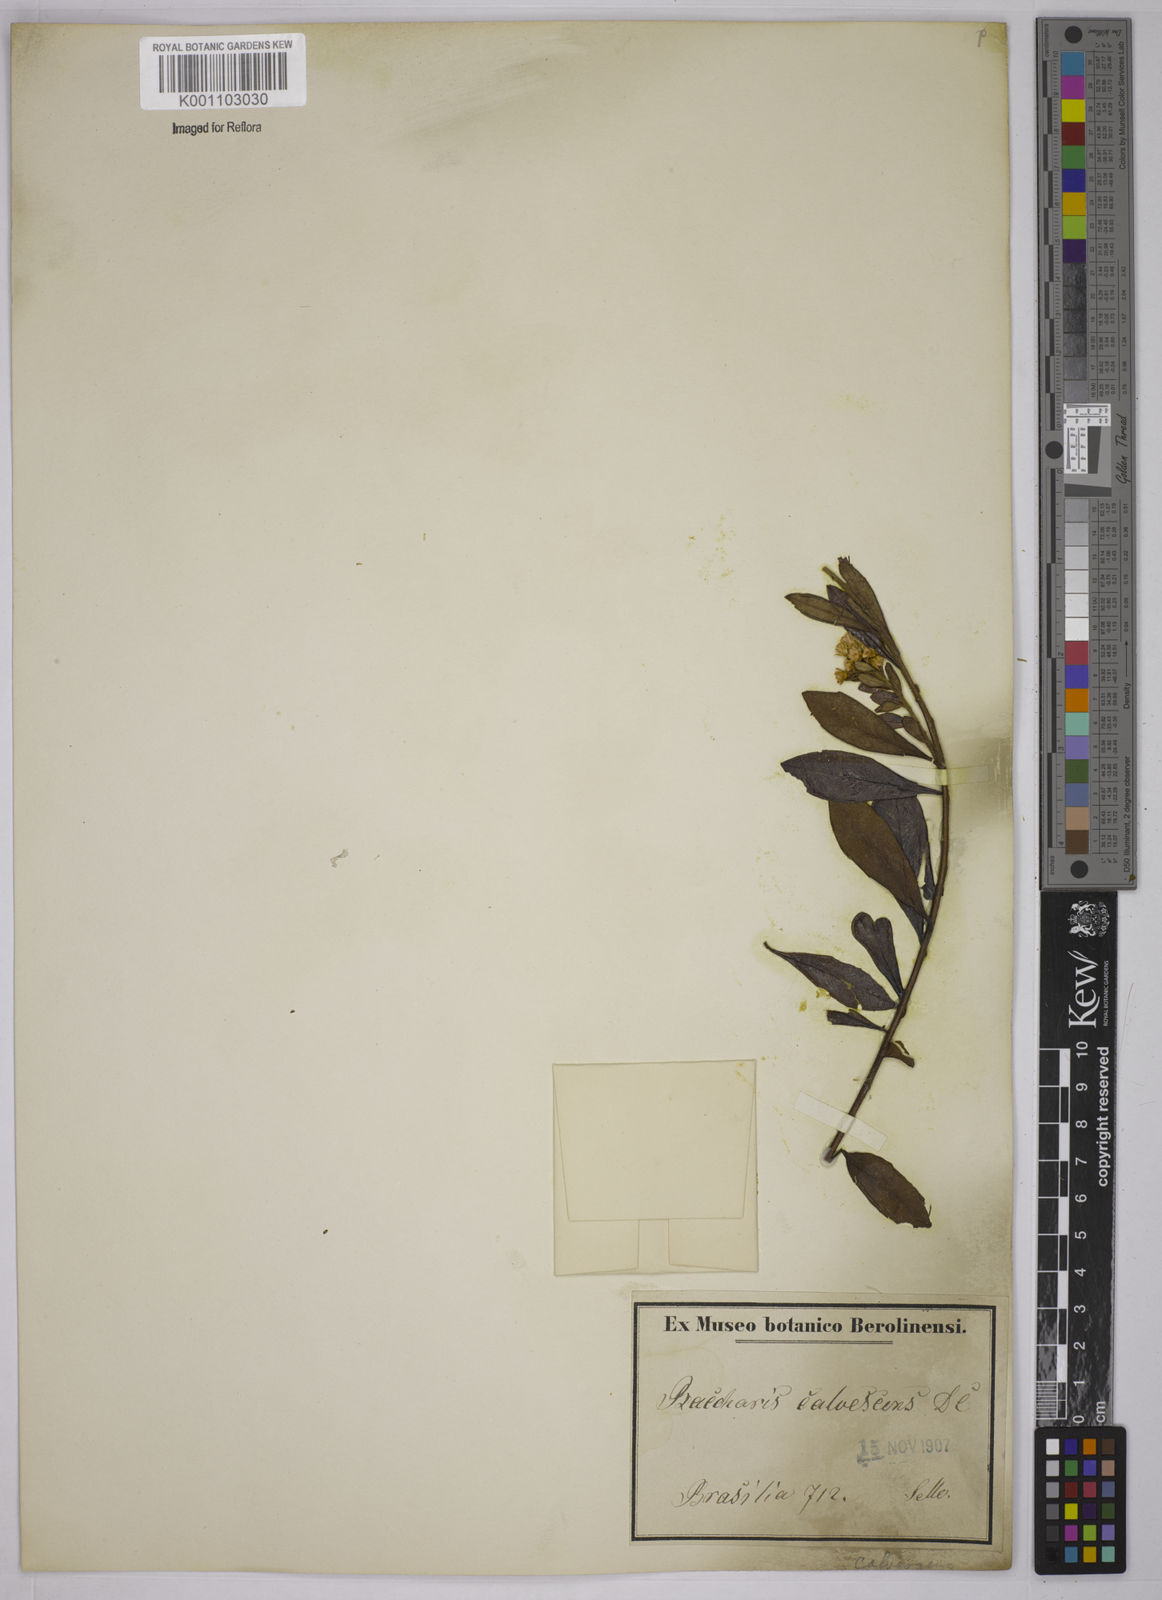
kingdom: Plantae
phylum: Tracheophyta
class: Magnoliopsida
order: Asterales
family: Asteraceae
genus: Baccharis
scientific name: Baccharis calvescens
